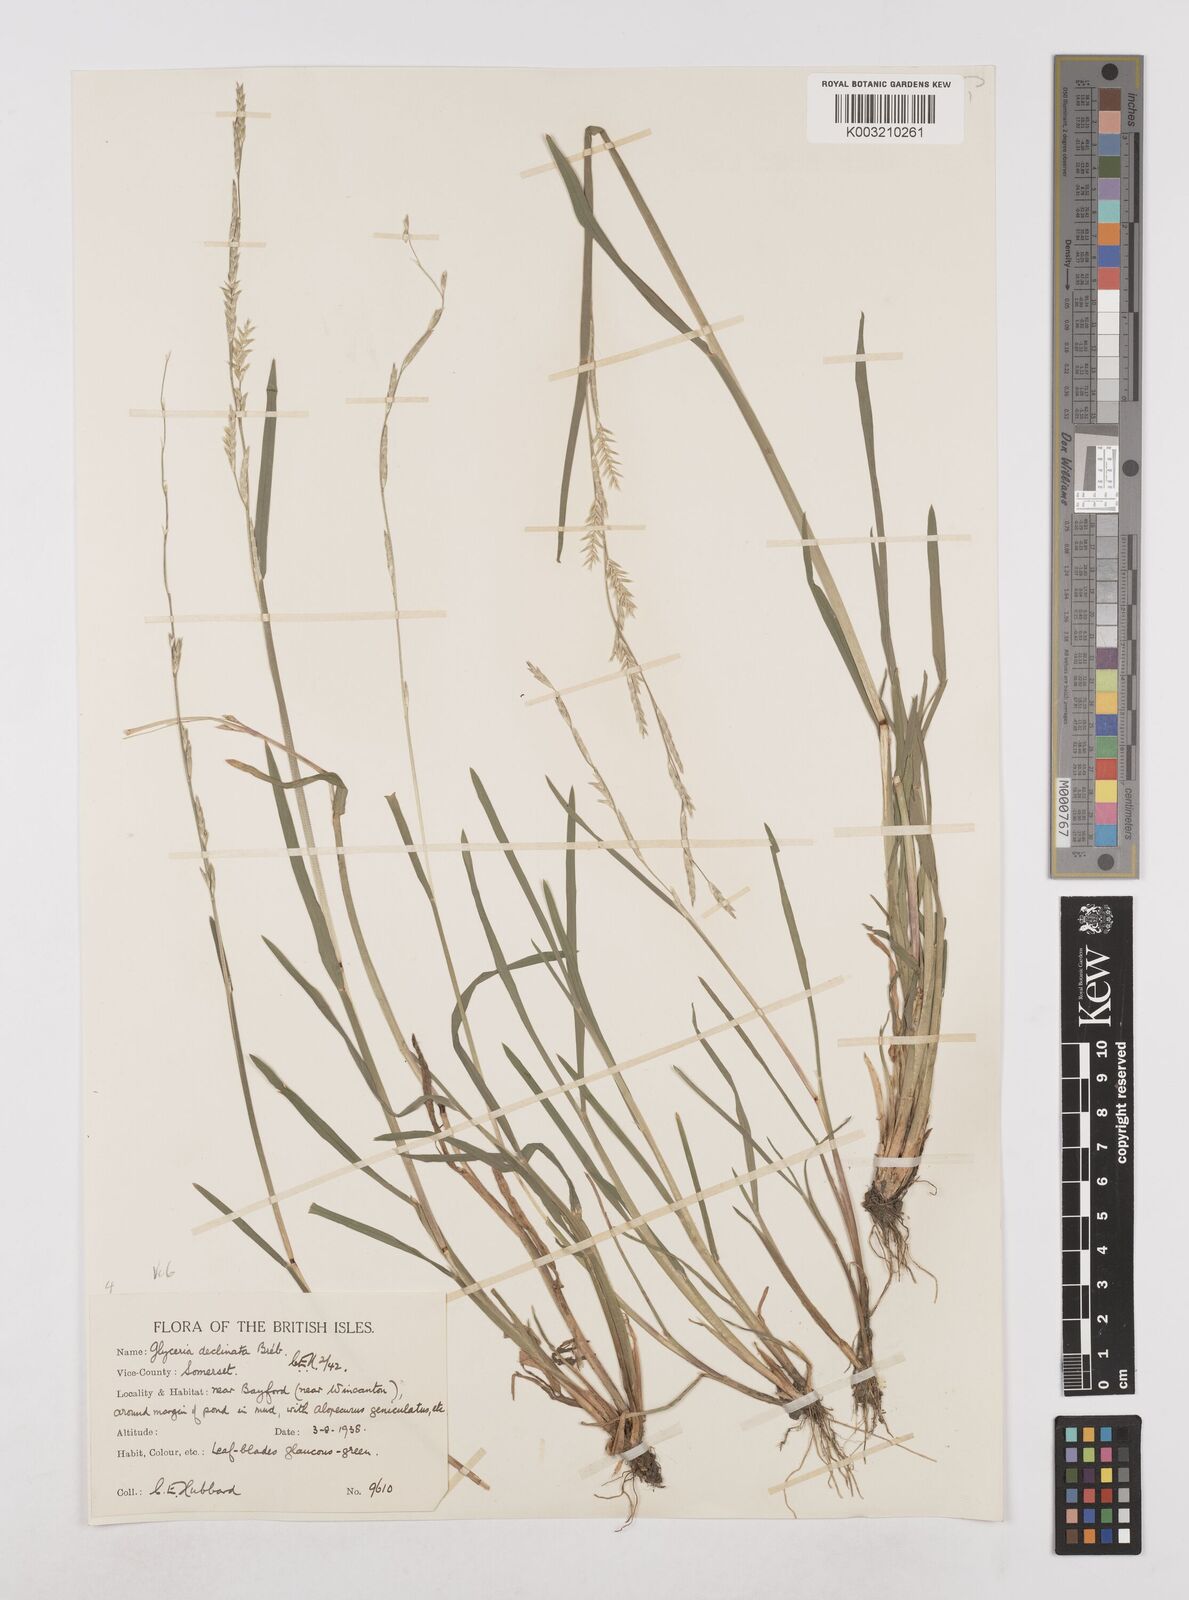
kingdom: Plantae
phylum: Tracheophyta
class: Liliopsida
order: Poales
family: Poaceae
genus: Glyceria
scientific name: Glyceria declinata
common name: Small sweet-grass
